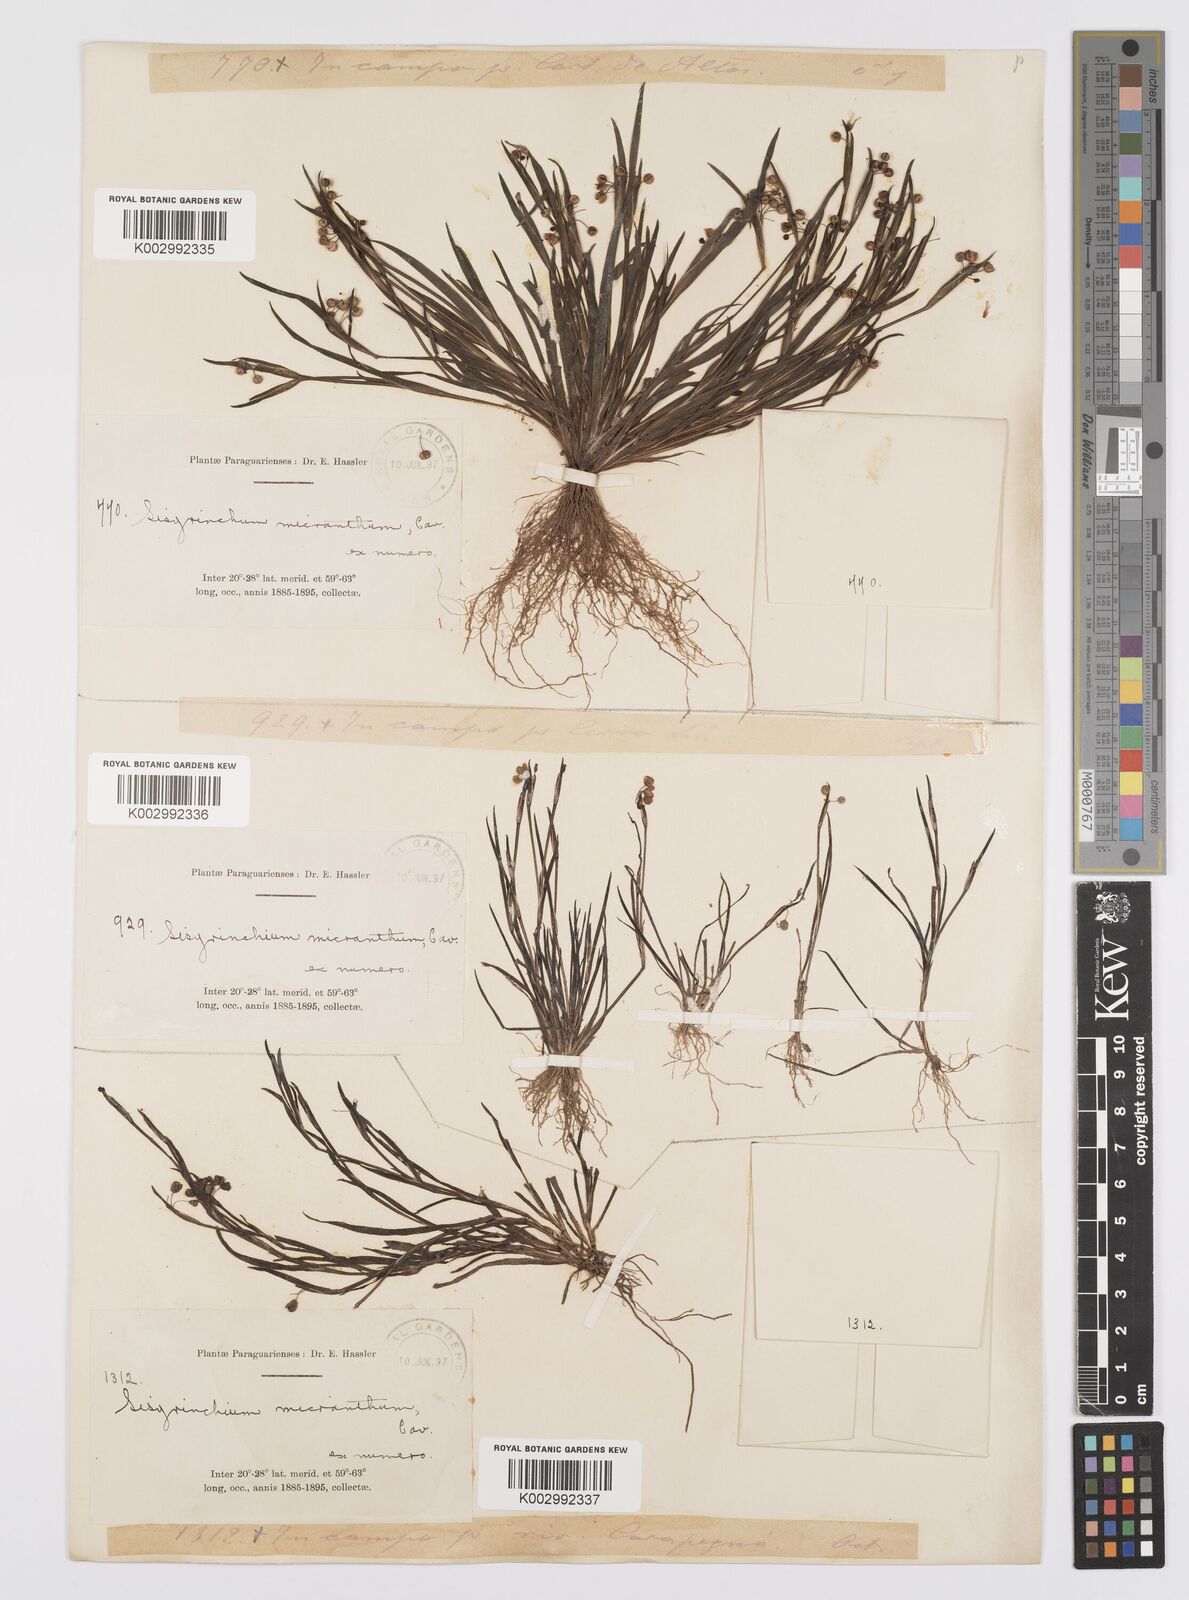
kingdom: Plantae
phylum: Tracheophyta
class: Liliopsida
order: Asparagales
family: Iridaceae
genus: Sisyrinchium
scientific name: Sisyrinchium micranthum
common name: Bermuda pigroot
